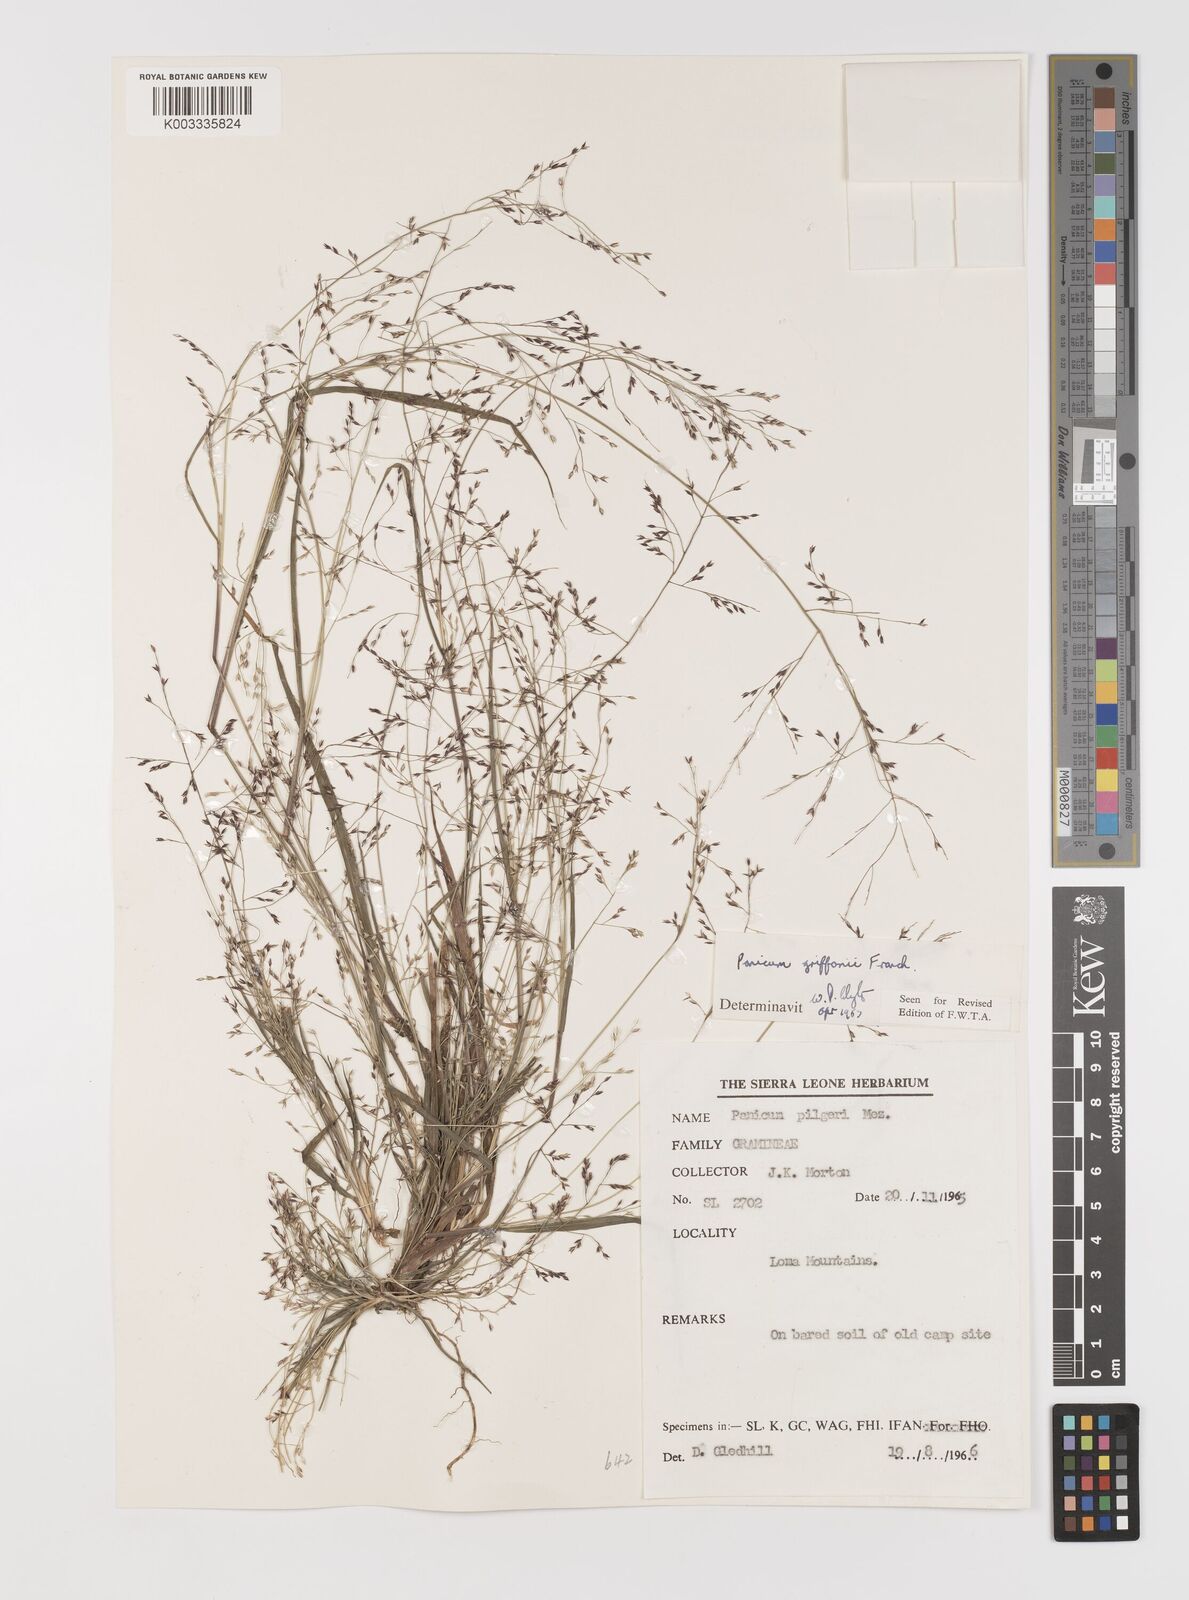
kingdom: Plantae
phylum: Tracheophyta
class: Liliopsida
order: Poales
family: Poaceae
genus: Panicum
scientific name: Panicum griffonii
